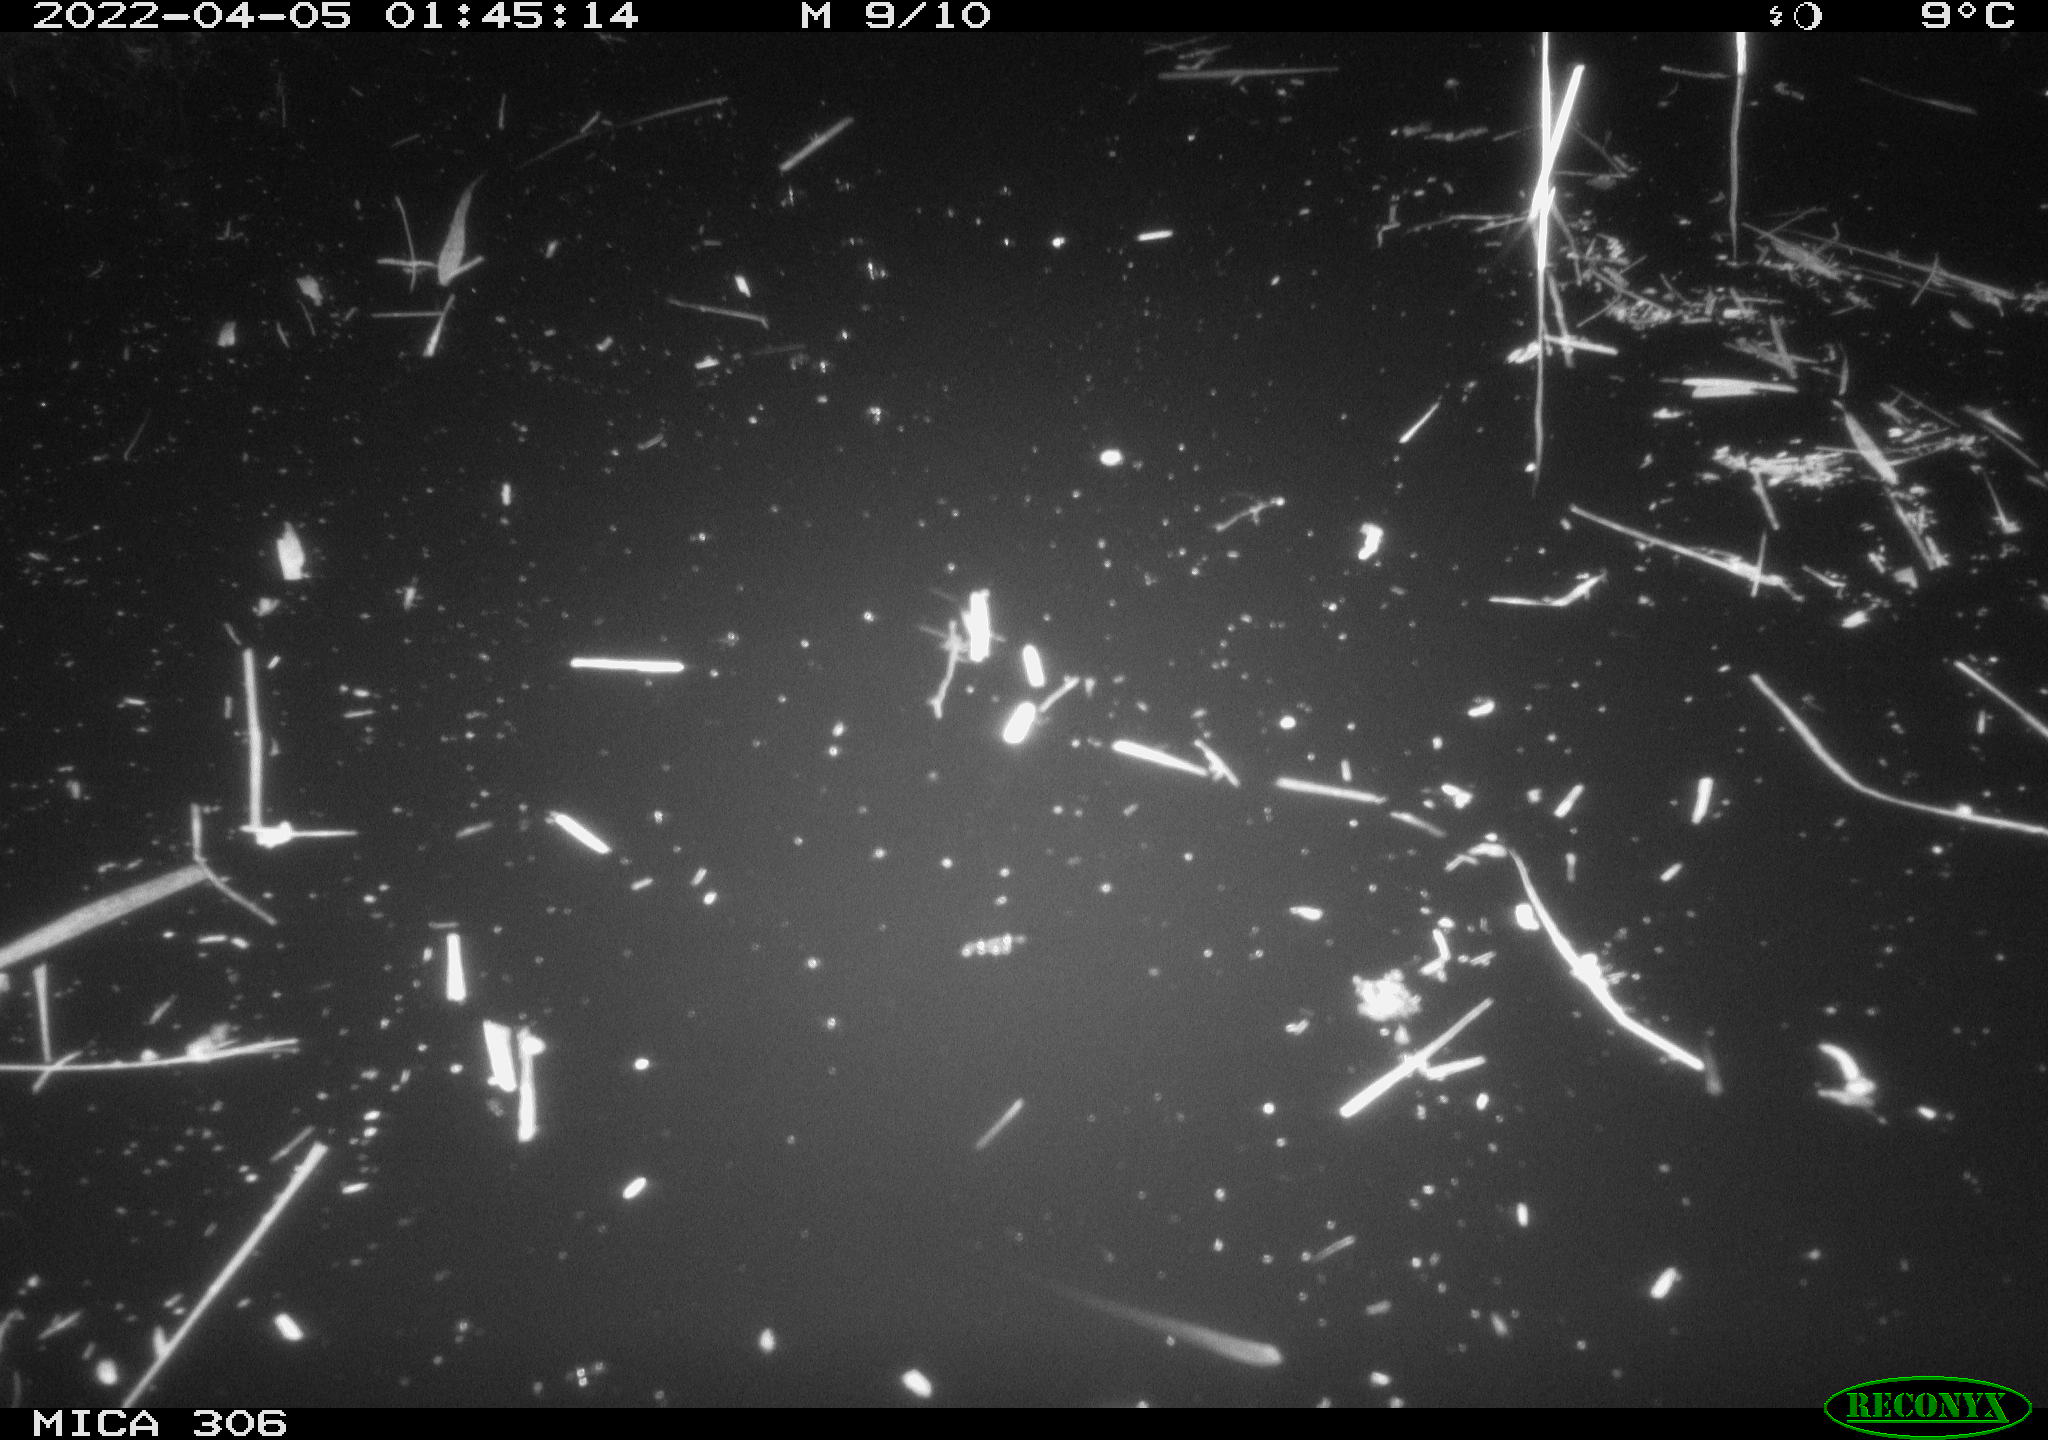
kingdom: Animalia
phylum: Chordata
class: Mammalia
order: Rodentia
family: Cricetidae
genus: Ondatra
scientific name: Ondatra zibethicus
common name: Muskrat
